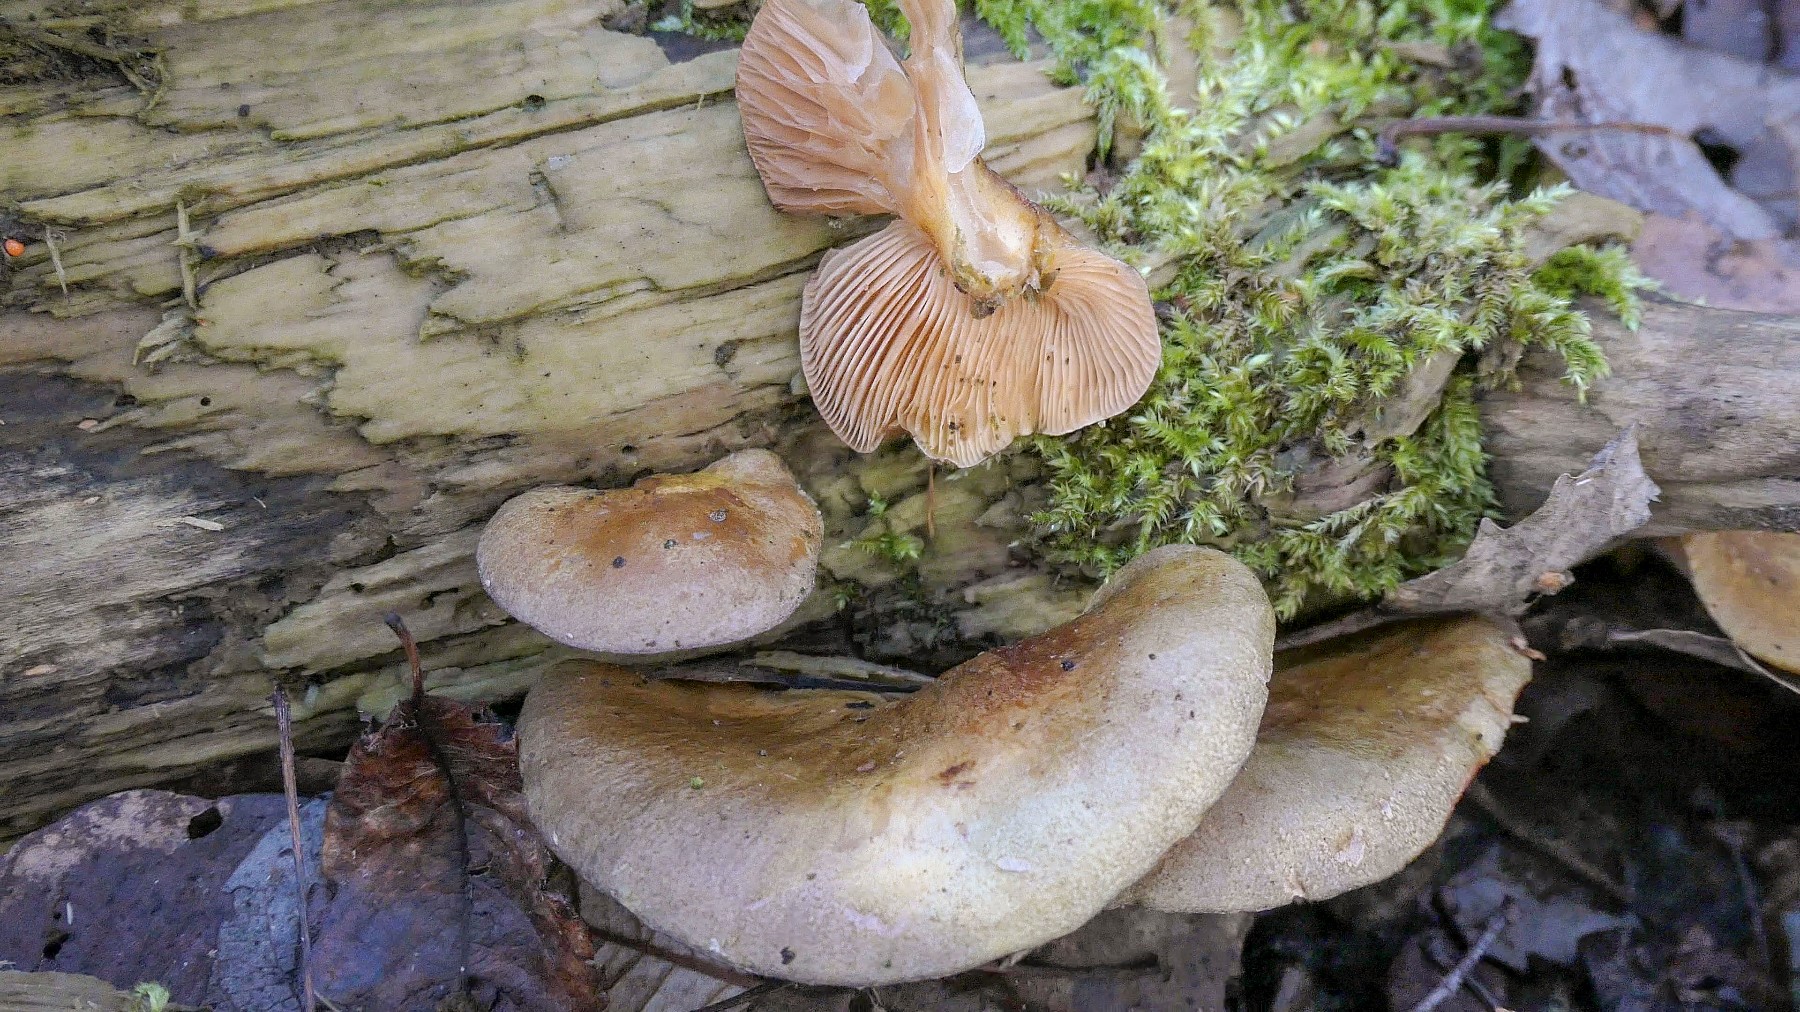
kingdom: Fungi
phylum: Basidiomycota
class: Agaricomycetes
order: Agaricales
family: Sarcomyxaceae
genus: Sarcomyxa
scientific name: Sarcomyxa serotina
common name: gummihat
